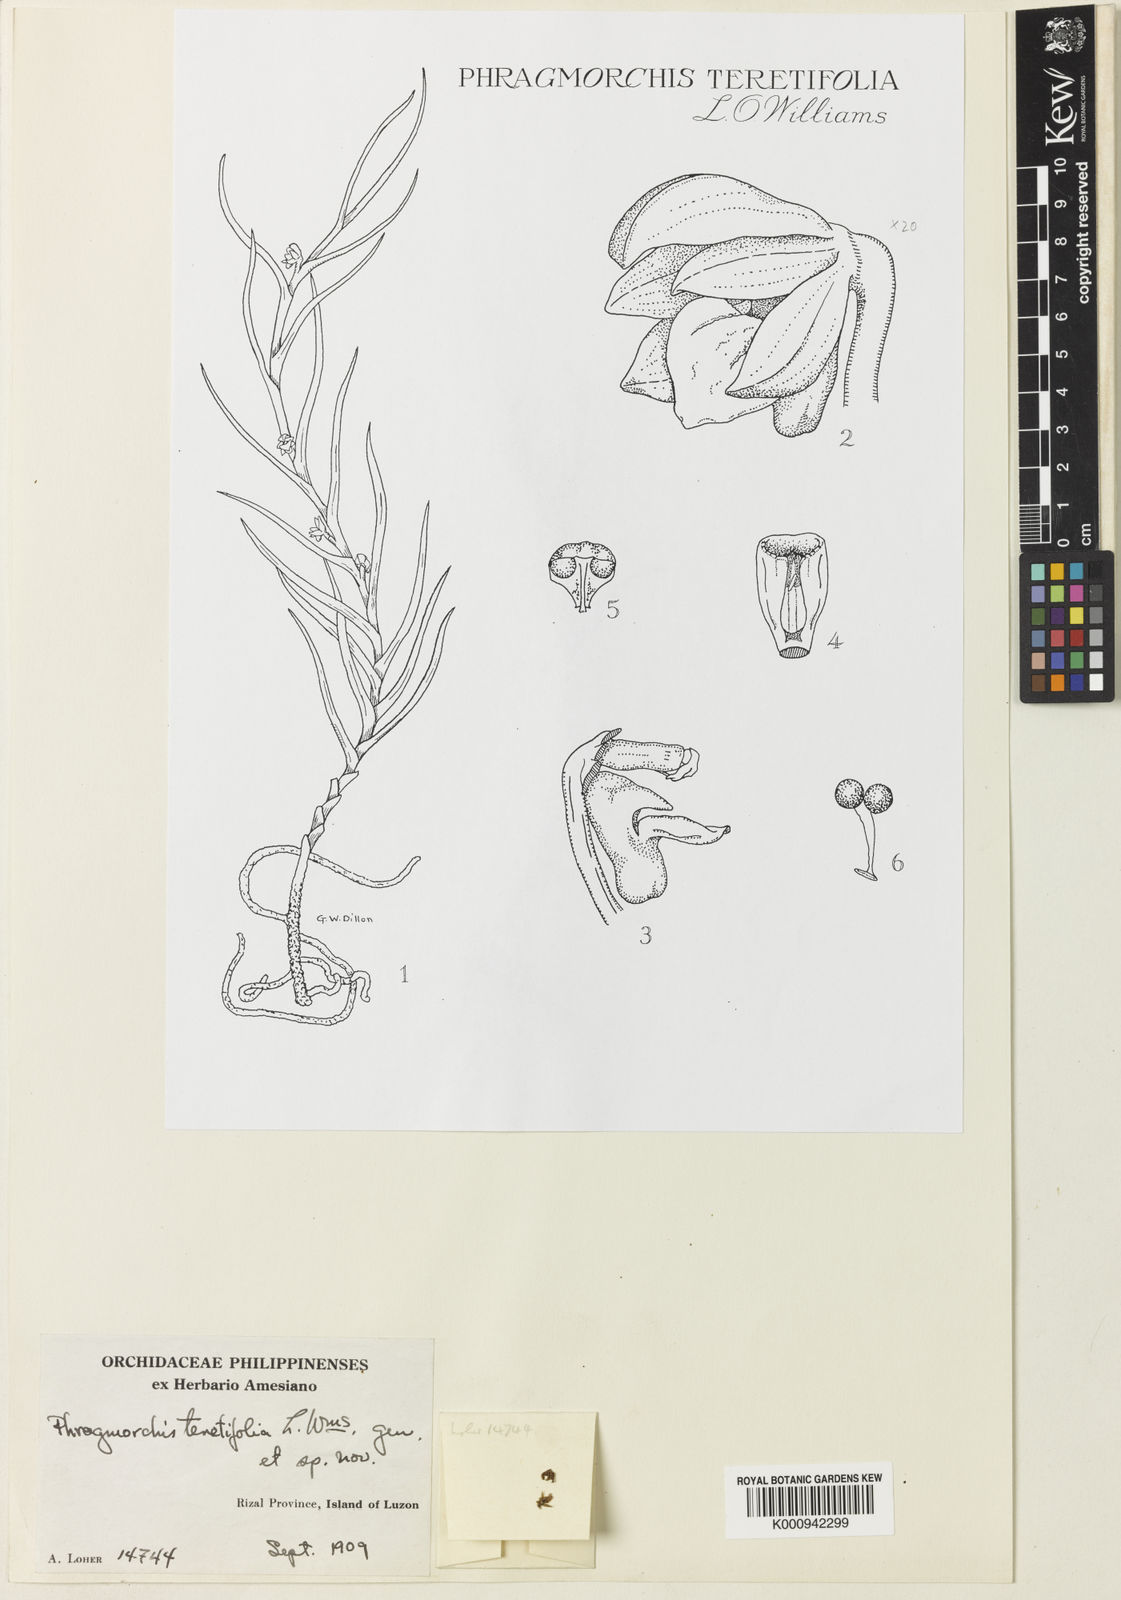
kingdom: Plantae
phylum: Tracheophyta
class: Liliopsida
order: Asparagales
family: Orchidaceae
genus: Phragmorchis
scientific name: Phragmorchis teretifolia
